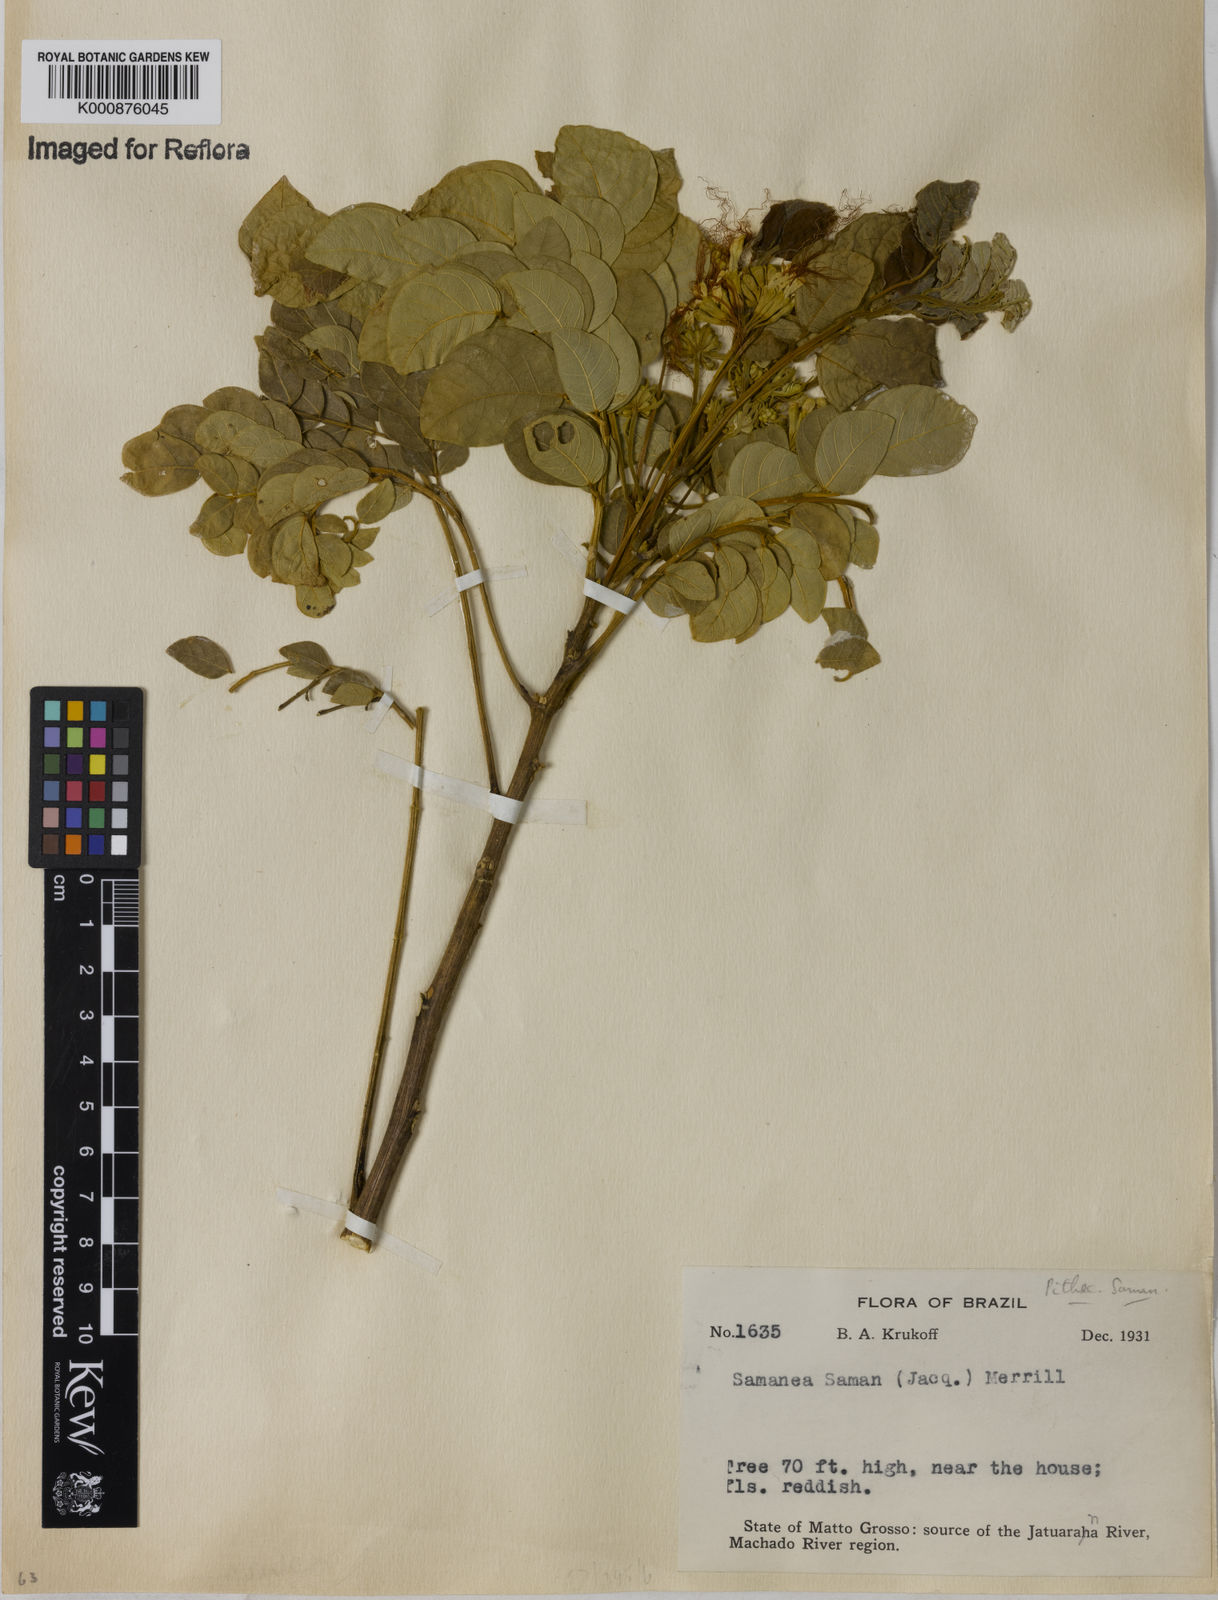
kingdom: Plantae
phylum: Tracheophyta
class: Magnoliopsida
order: Fabales
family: Fabaceae
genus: Samanea
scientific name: Samanea saman
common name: Raintree
